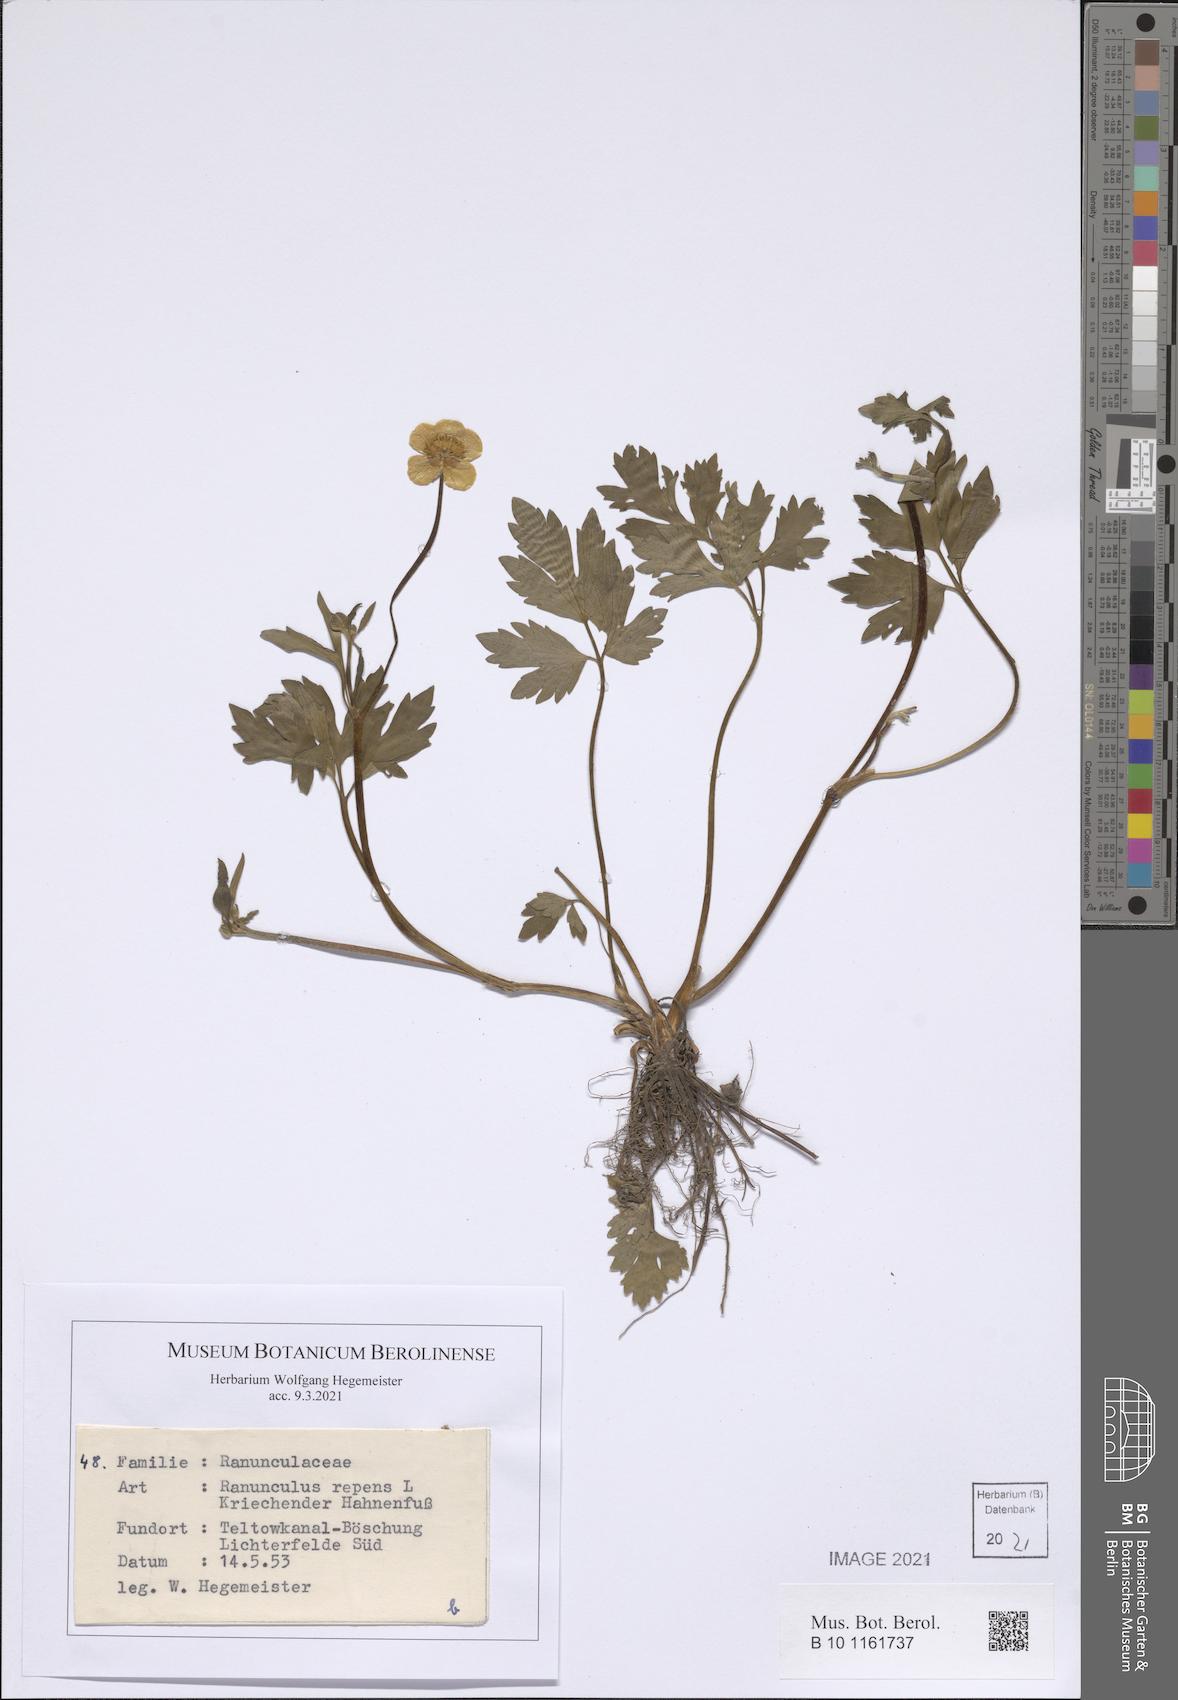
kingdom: Plantae
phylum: Tracheophyta
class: Magnoliopsida
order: Ranunculales
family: Ranunculaceae
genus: Ranunculus
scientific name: Ranunculus repens
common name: Creeping buttercup
